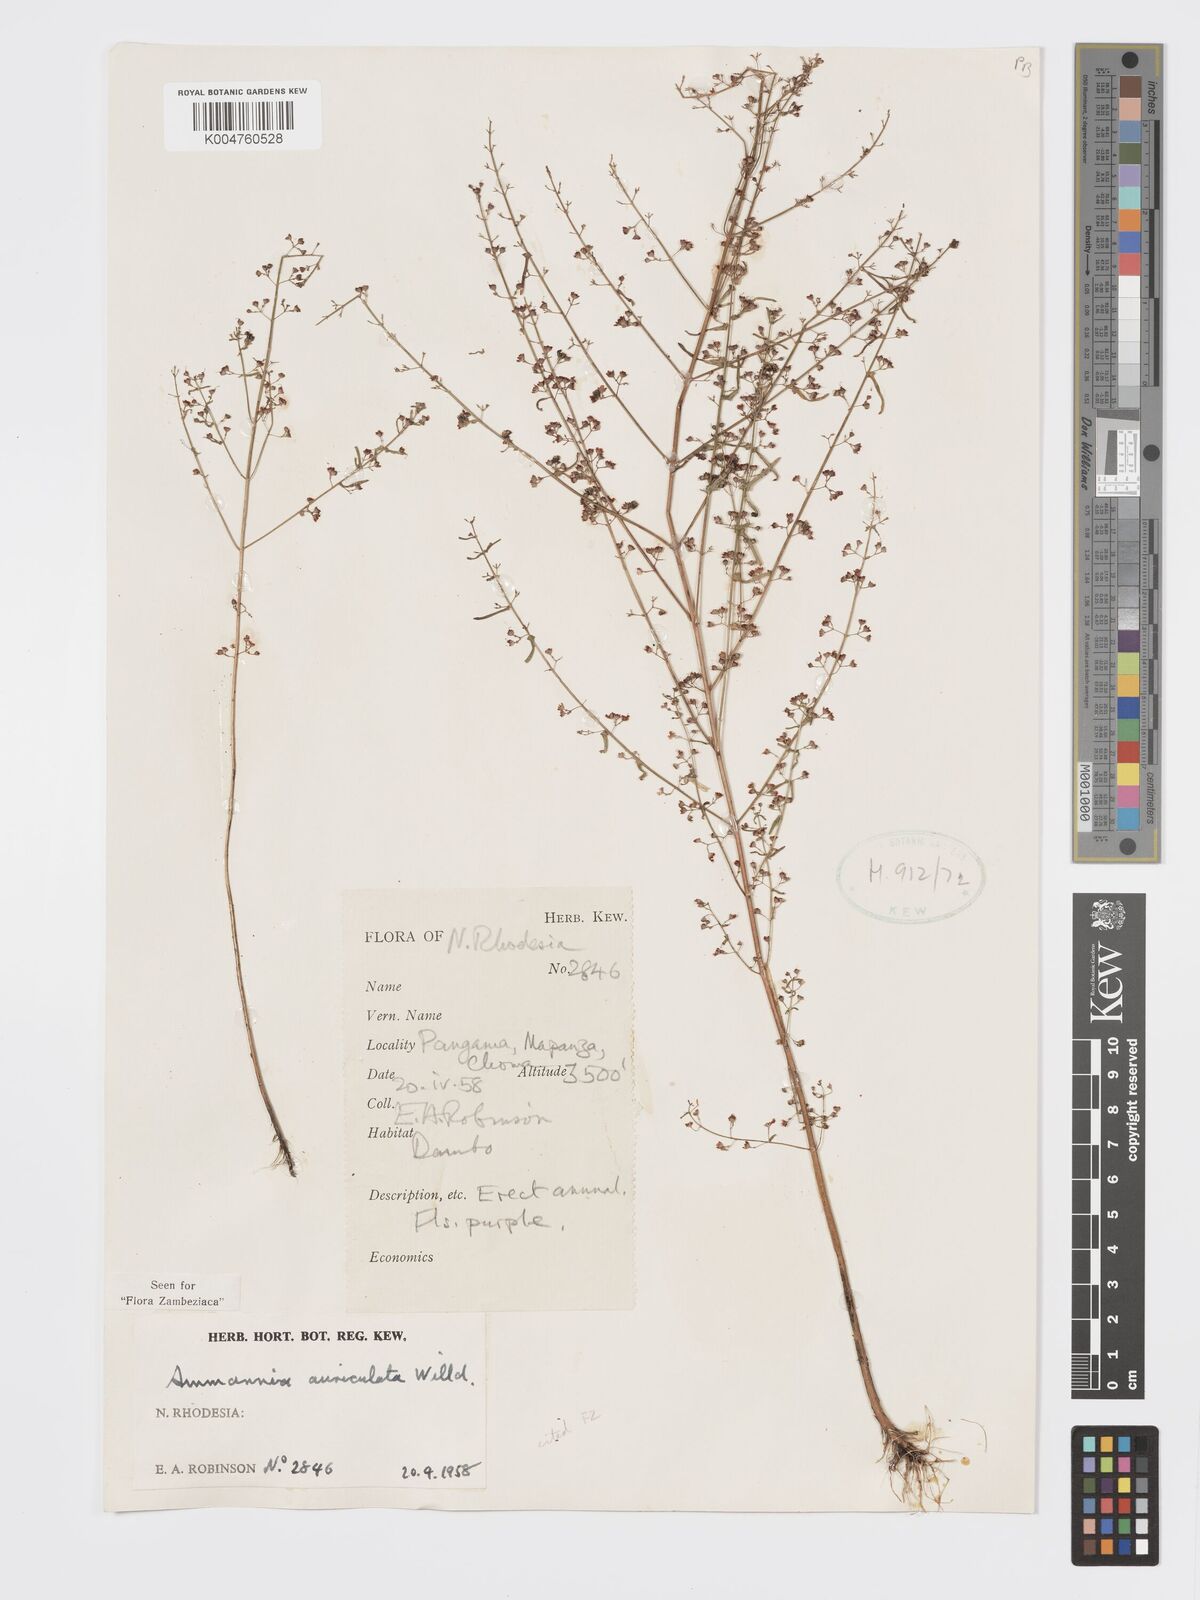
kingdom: Plantae
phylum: Tracheophyta
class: Magnoliopsida
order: Myrtales
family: Lythraceae
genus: Ammannia
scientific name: Ammannia auriculata
